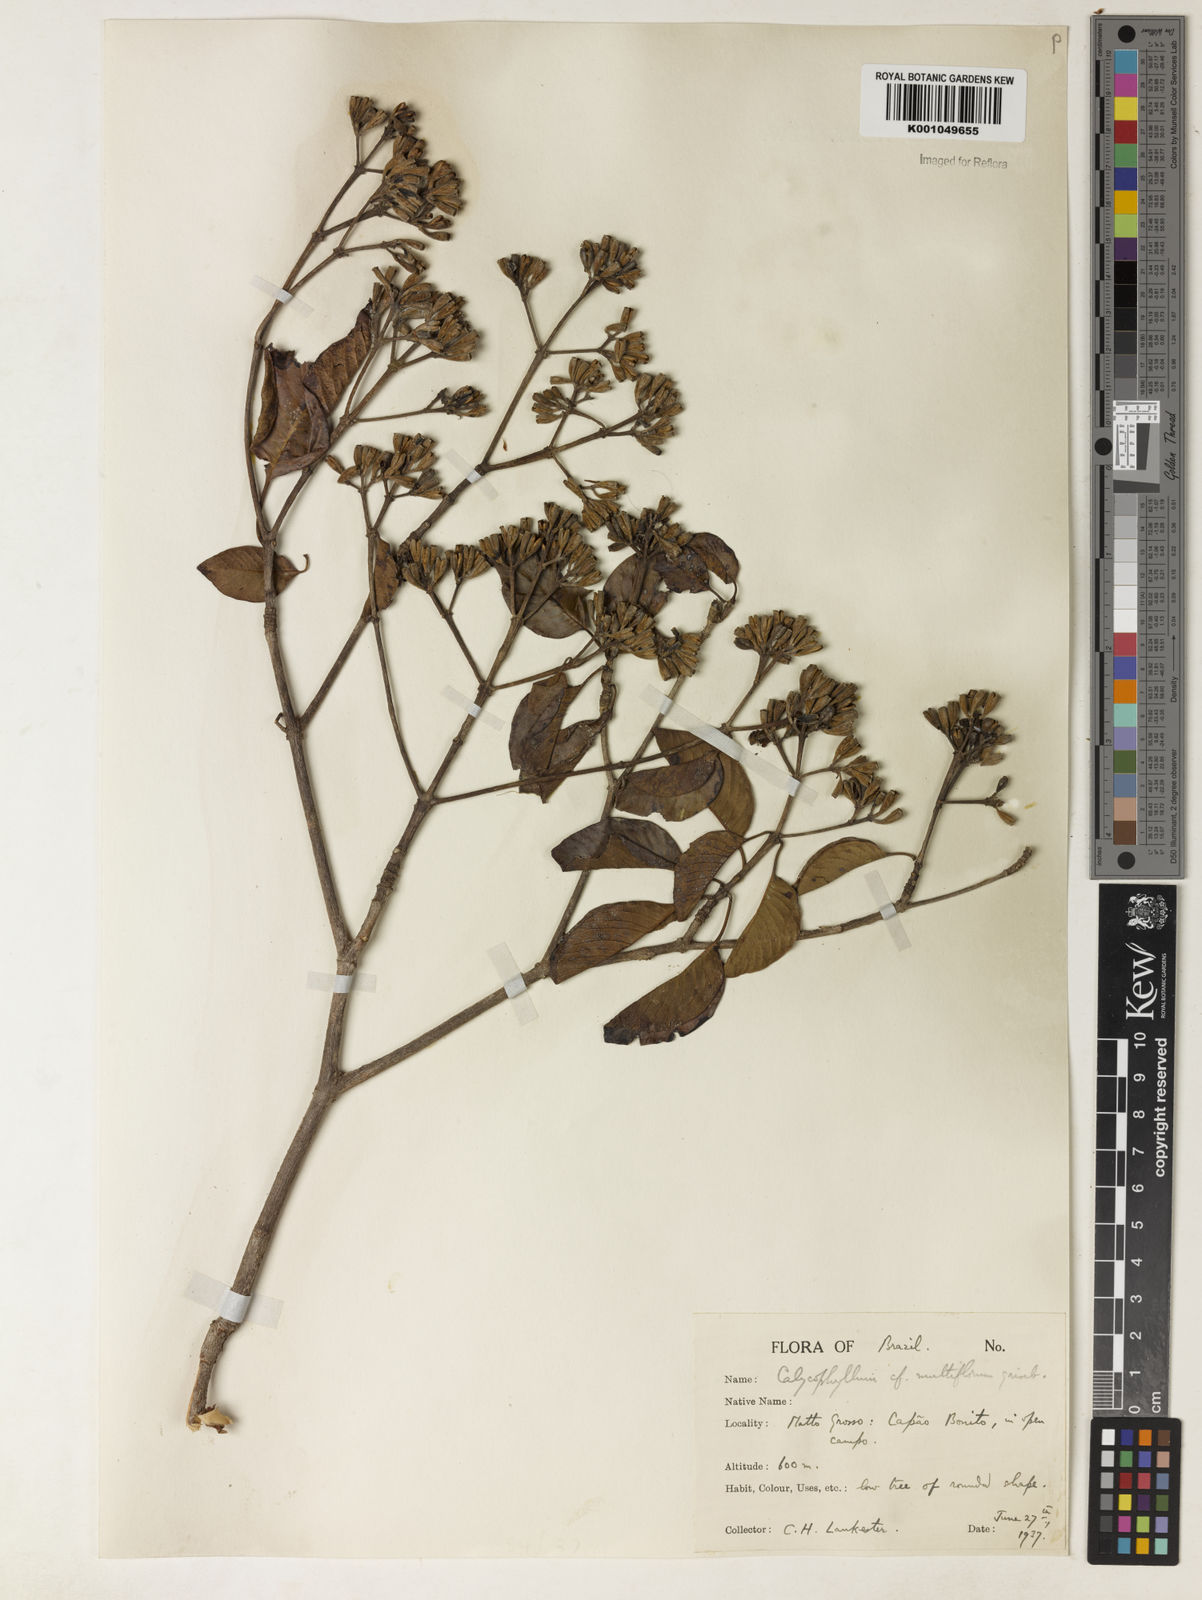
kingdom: Plantae
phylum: Tracheophyta
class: Magnoliopsida
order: Gentianales
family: Rubiaceae
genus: Calycophyllum
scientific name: Calycophyllum multiflorum
